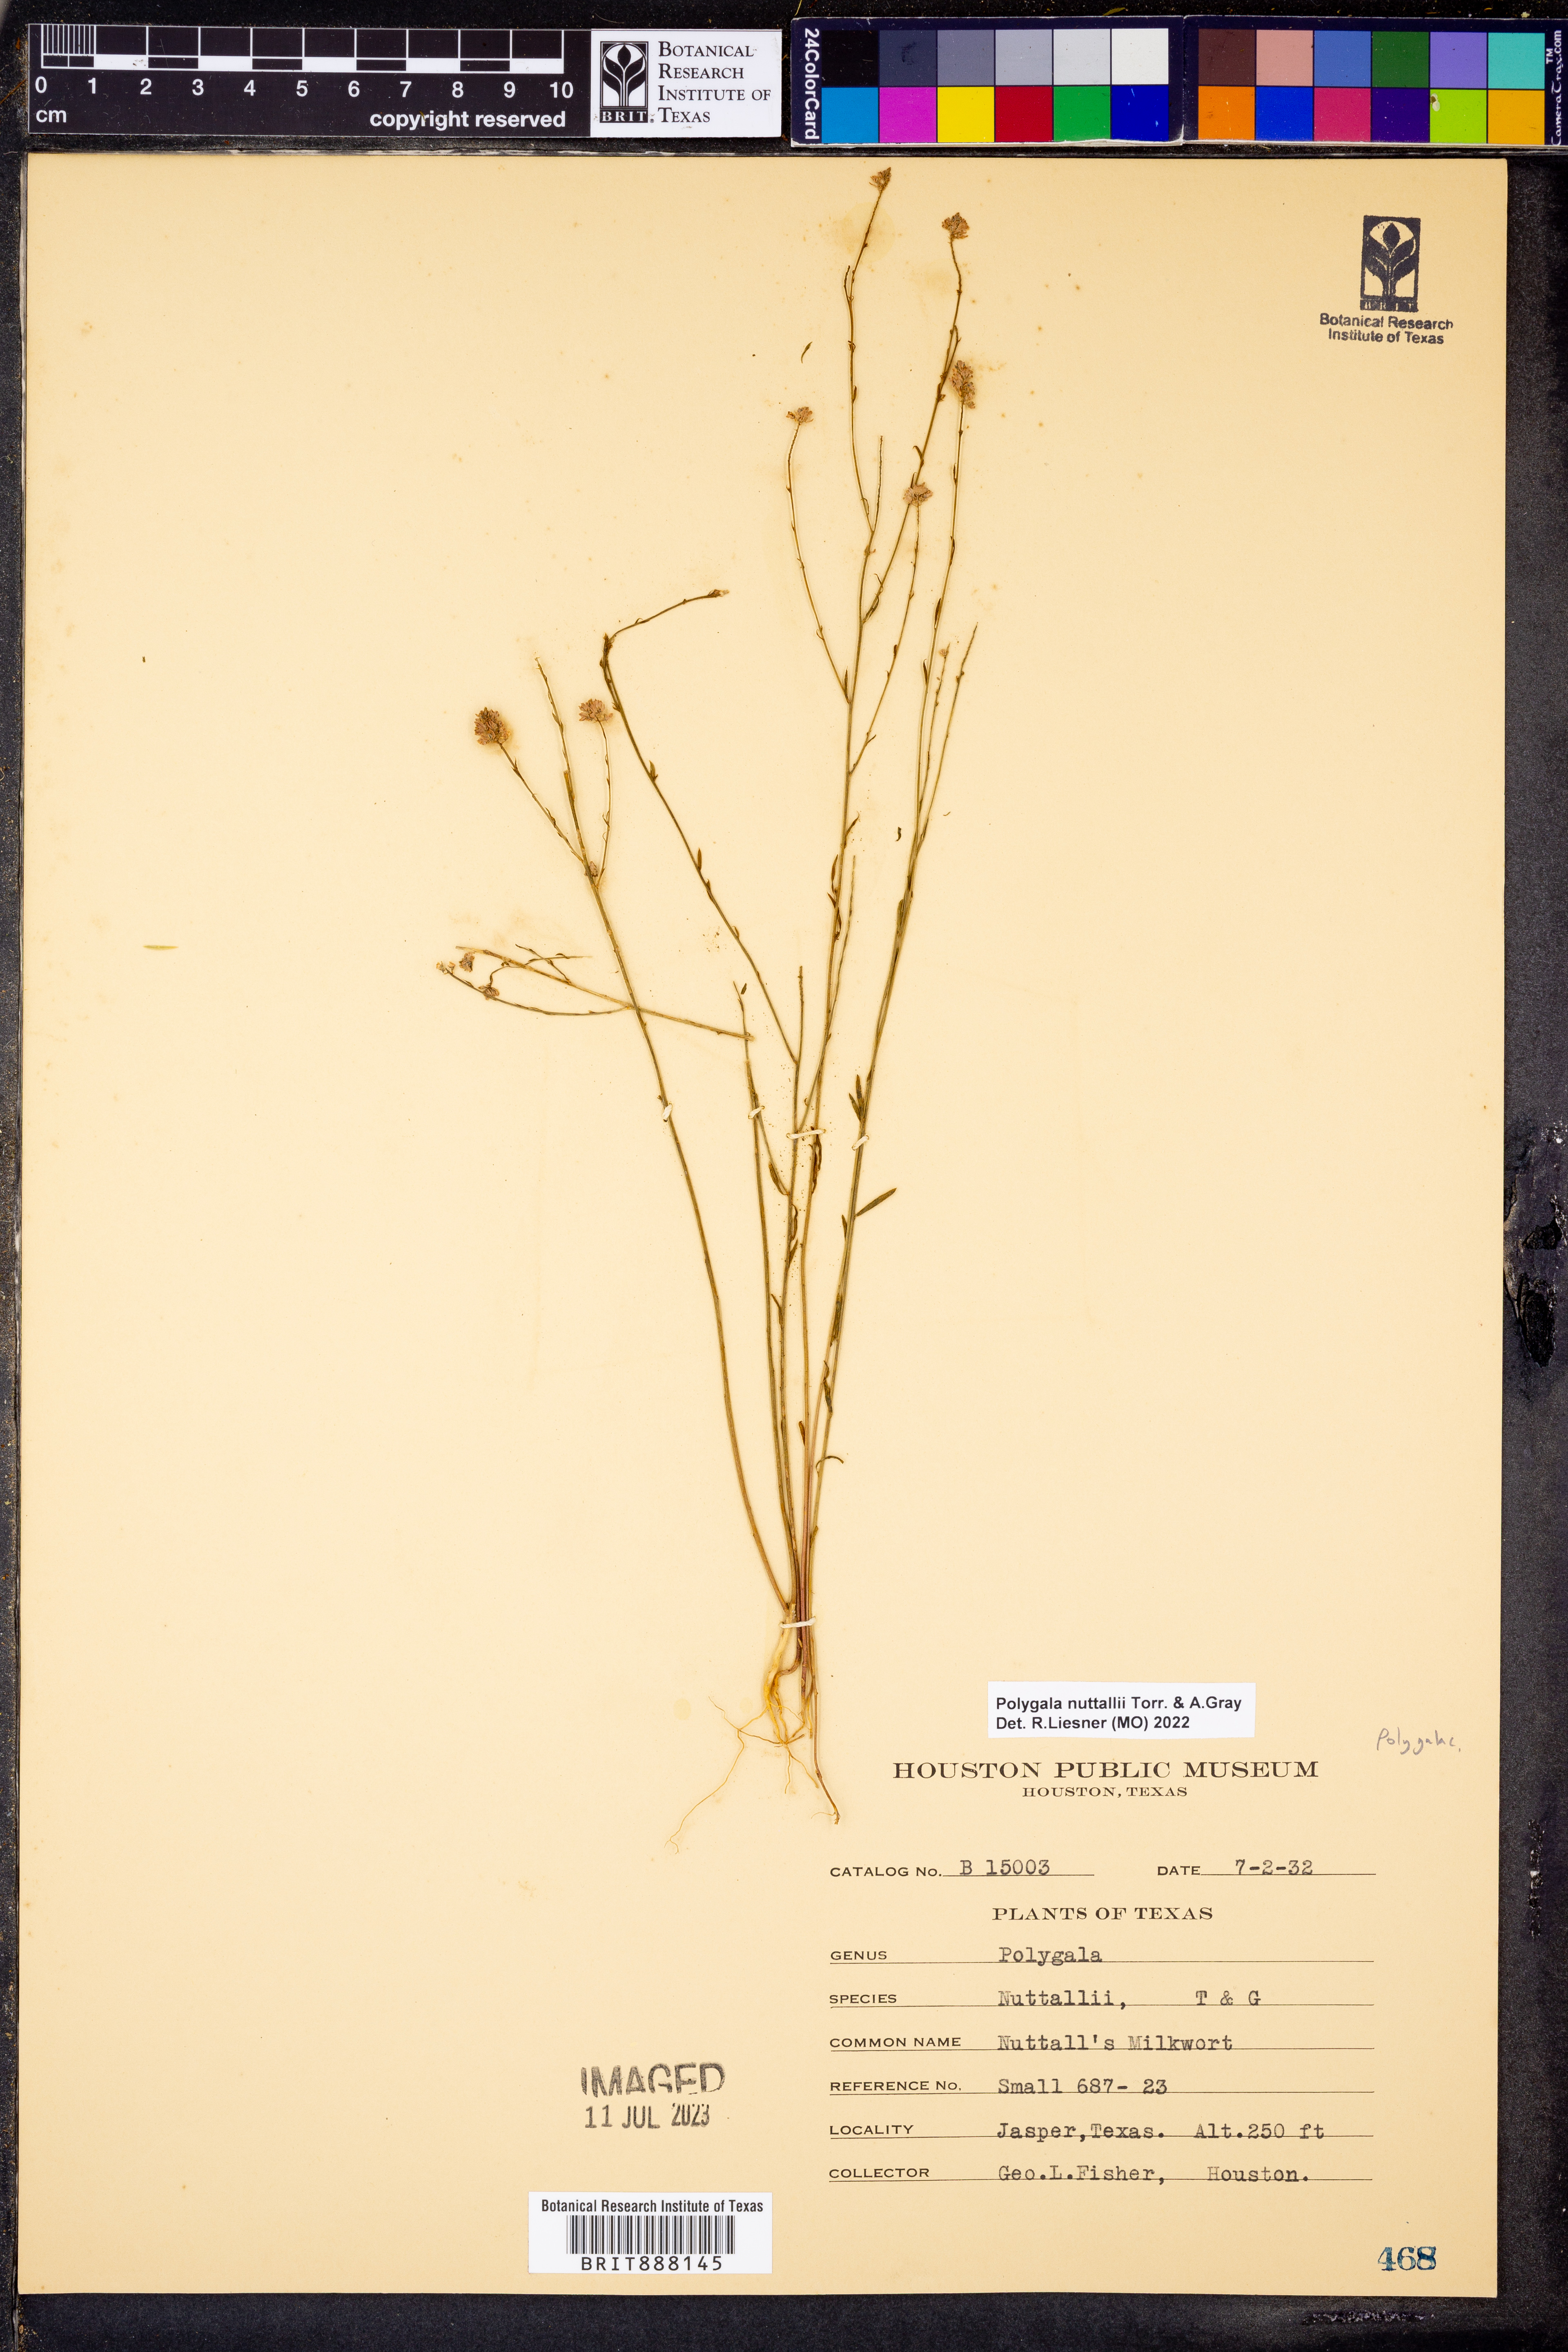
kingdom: Plantae
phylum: Tracheophyta
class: Magnoliopsida
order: Fabales
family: Polygalaceae
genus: Polygala
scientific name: Polygala nuttallii
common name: Nuttall's milkwort
